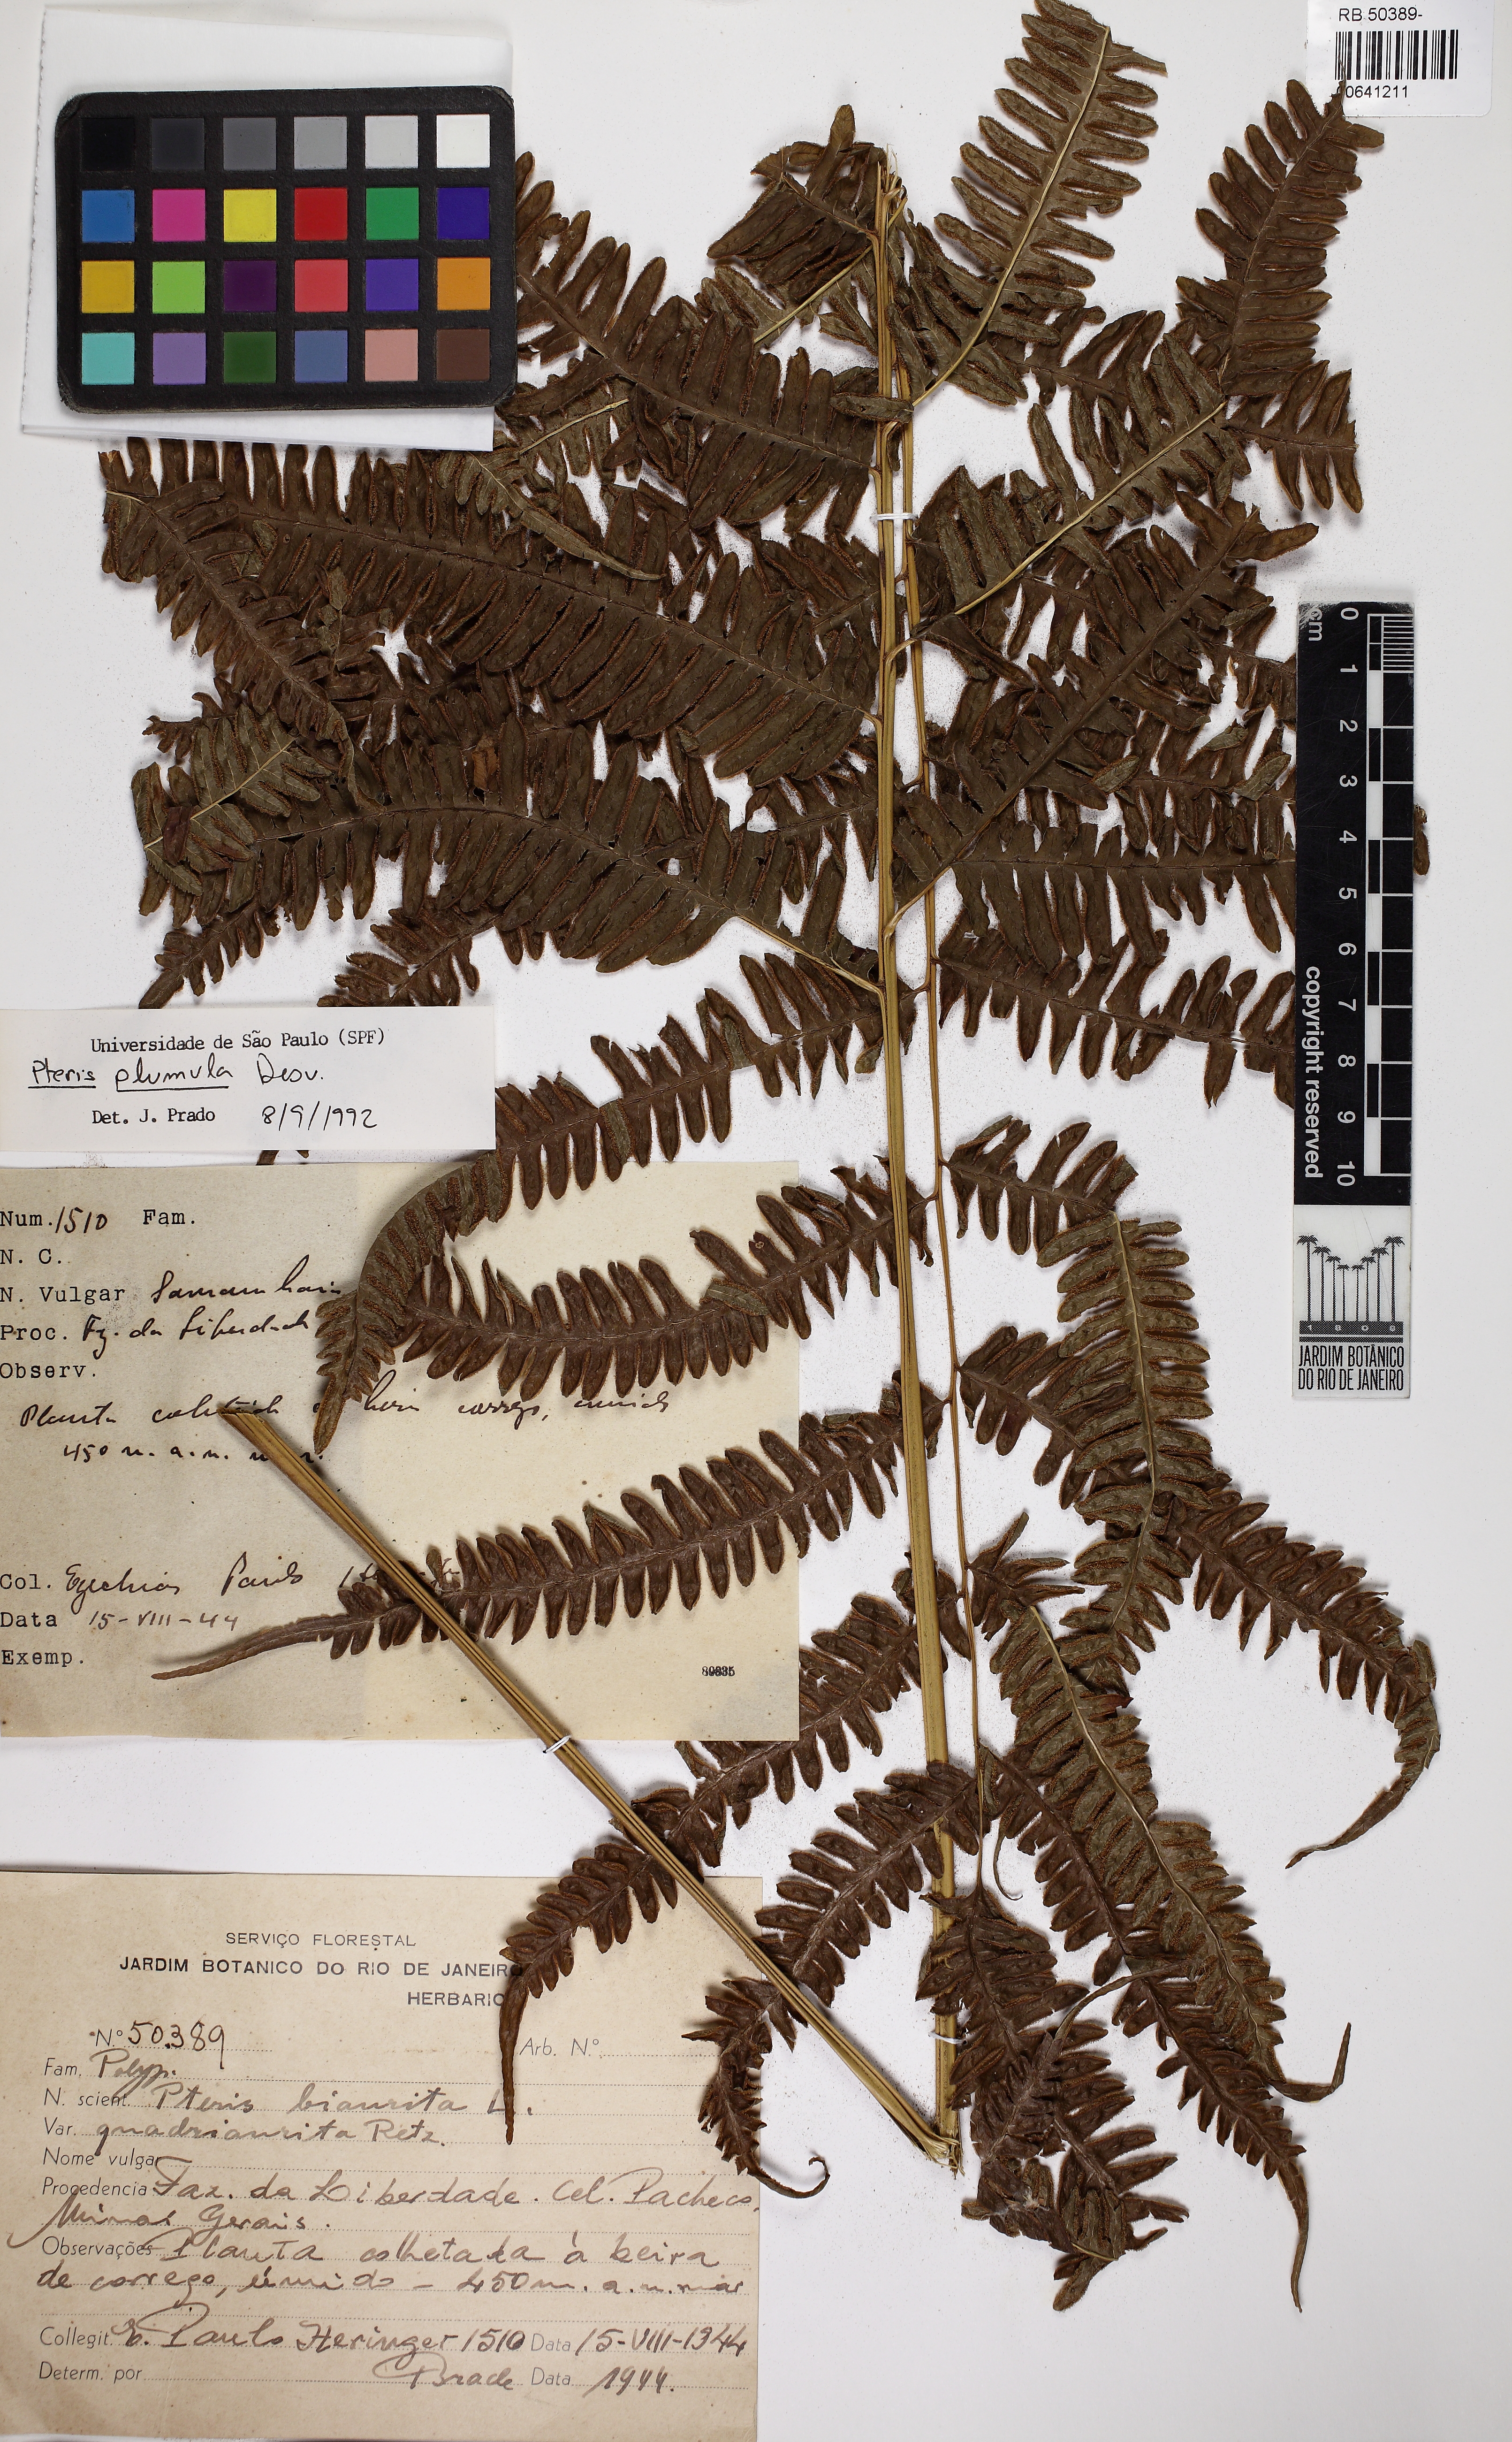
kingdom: Plantae
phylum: Tracheophyta
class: Polypodiopsida
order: Polypodiales
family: Pteridaceae
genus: Pteris
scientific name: Pteris quadriaurita
